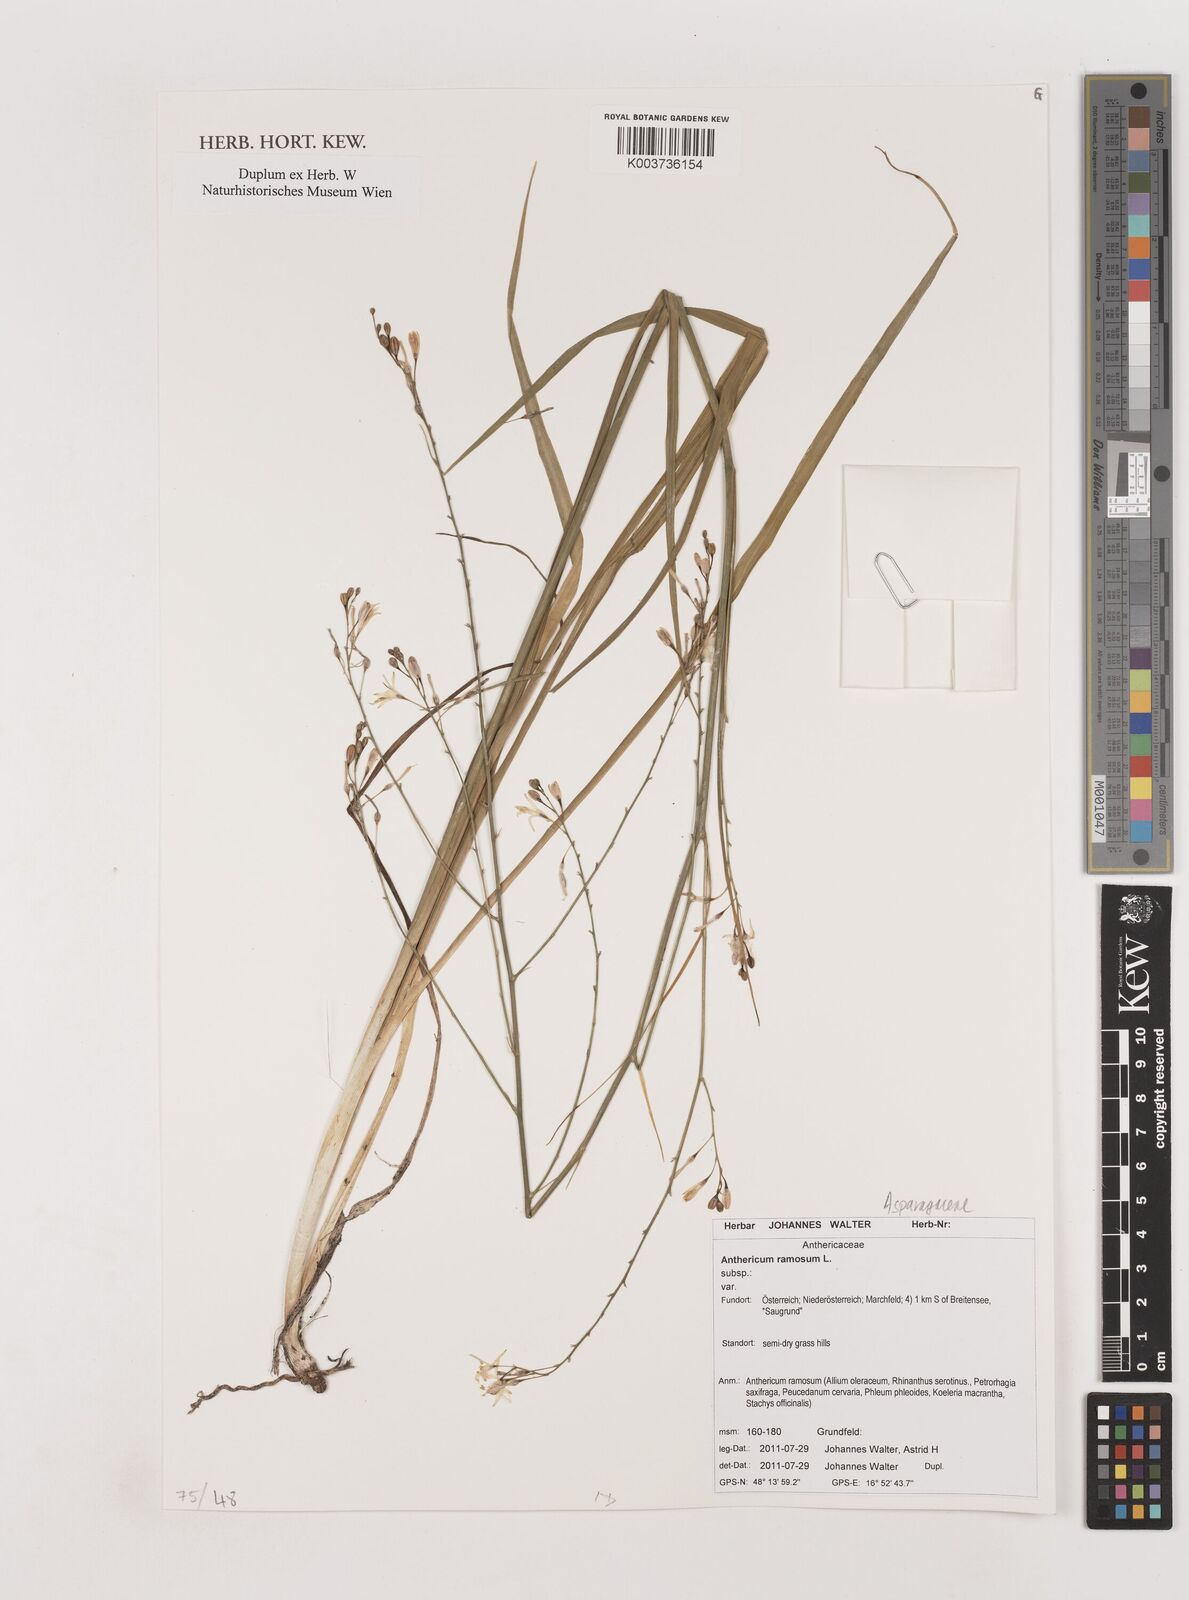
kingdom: Plantae
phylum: Tracheophyta
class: Liliopsida
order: Asparagales
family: Asparagaceae
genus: Anthericum
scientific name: Anthericum ramosum
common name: Branched st. bernard's-lily
